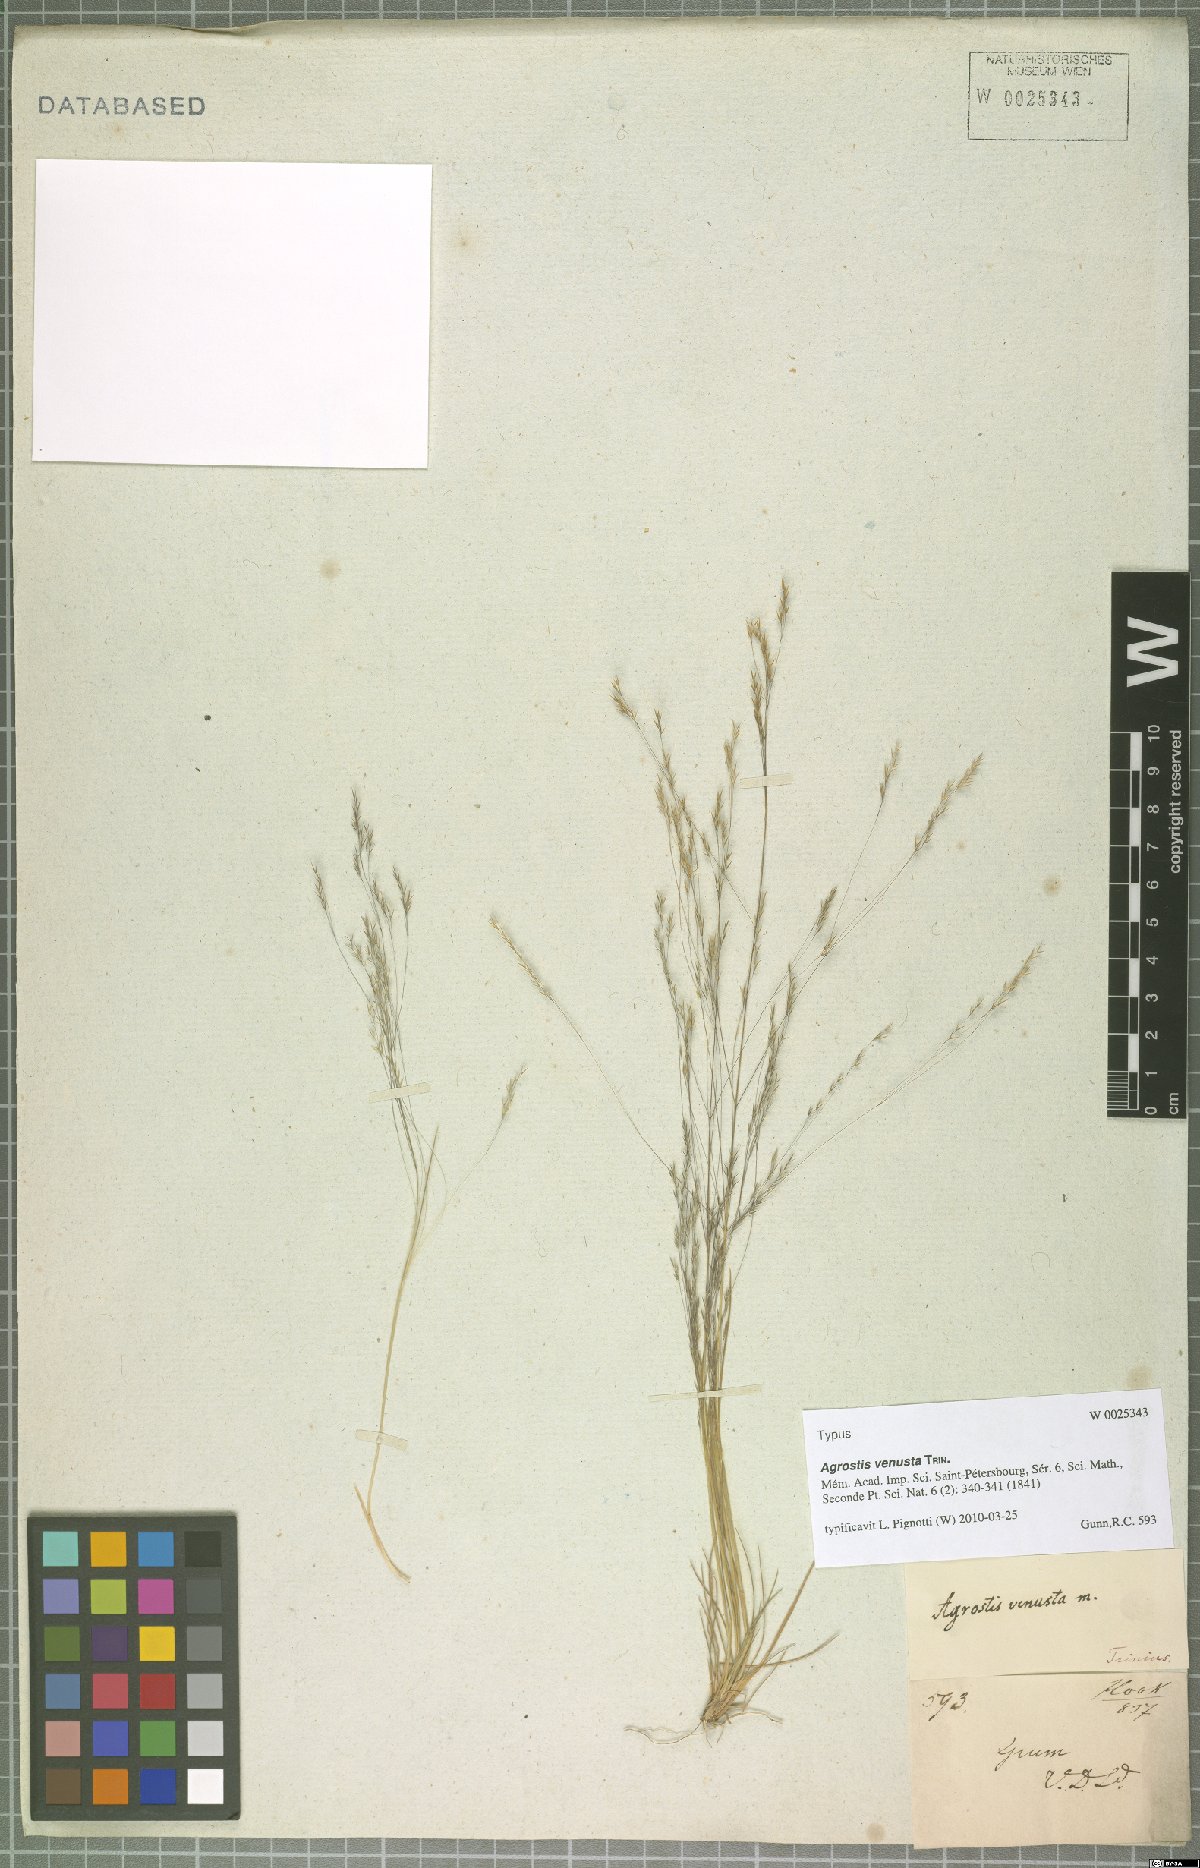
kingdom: Plantae
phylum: Tracheophyta
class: Liliopsida
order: Poales
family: Poaceae
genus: Agrostis
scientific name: Agrostis venusta
